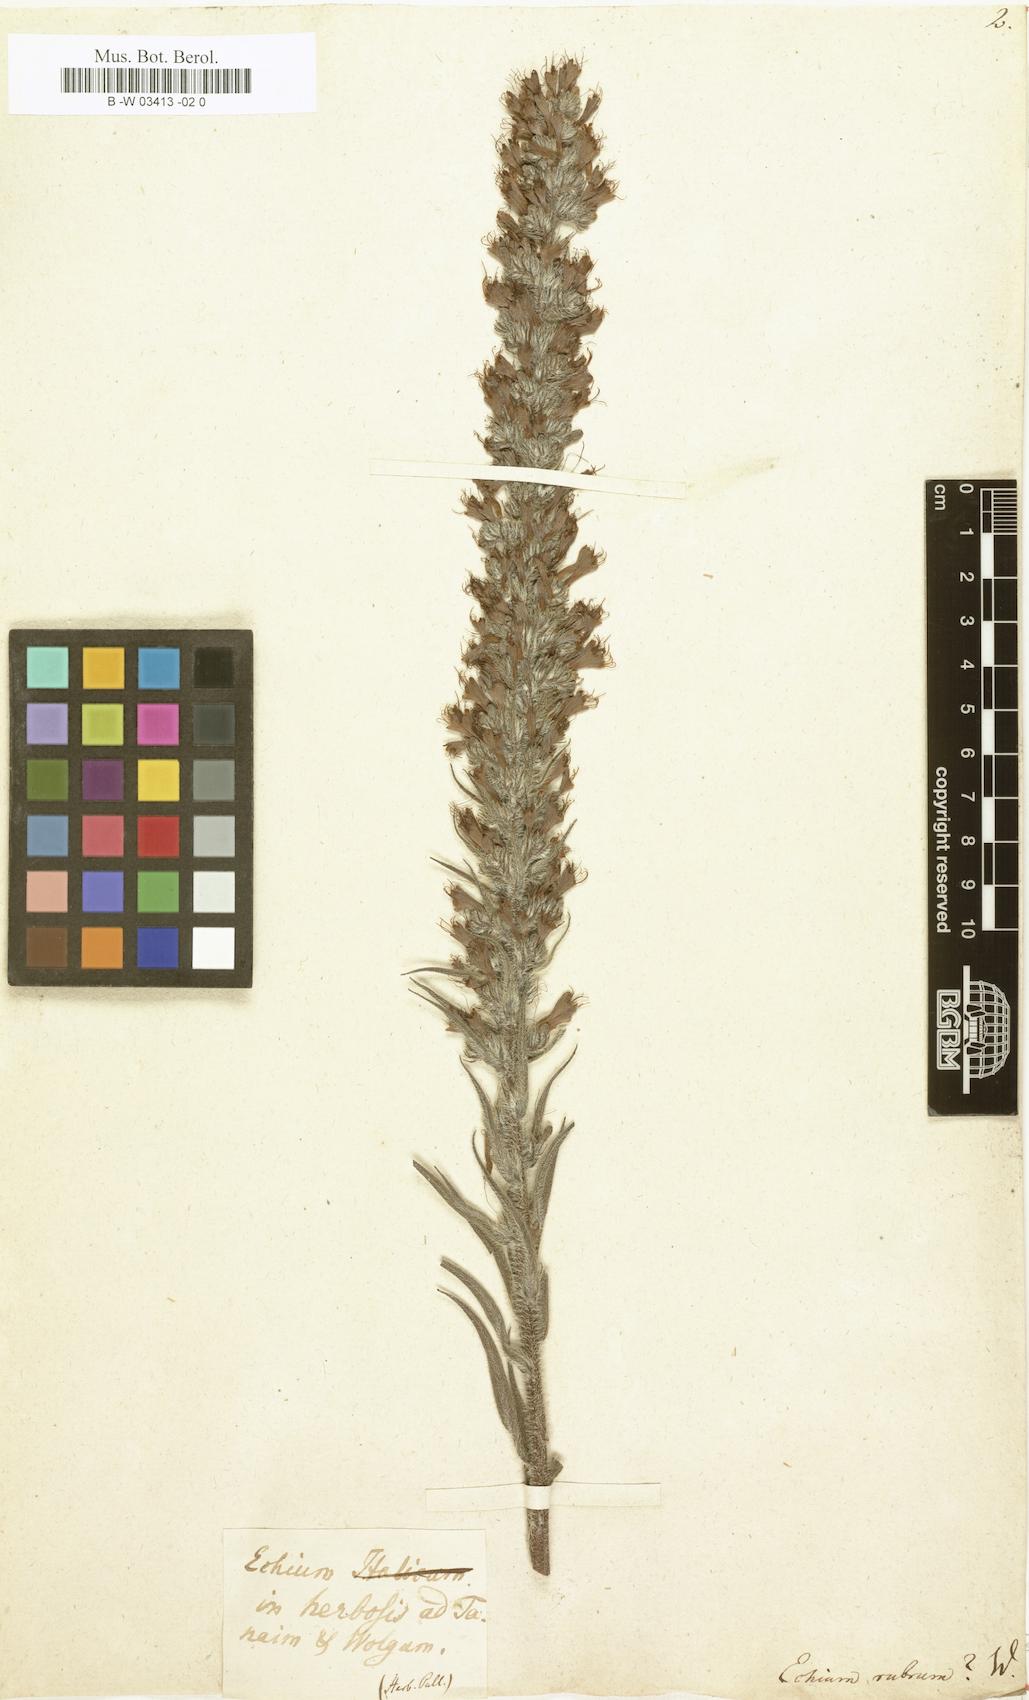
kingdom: Plantae
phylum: Tracheophyta
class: Magnoliopsida
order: Boraginales
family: Boraginaceae
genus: Echium
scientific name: Echium creticum
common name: Cretan viper's bugloss
